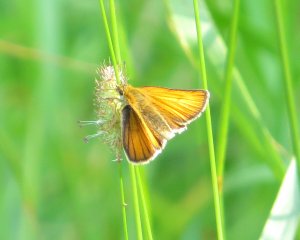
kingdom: Animalia
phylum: Arthropoda
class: Insecta
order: Lepidoptera
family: Hesperiidae
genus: Thymelicus
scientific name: Thymelicus lineola
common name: European Skipper
